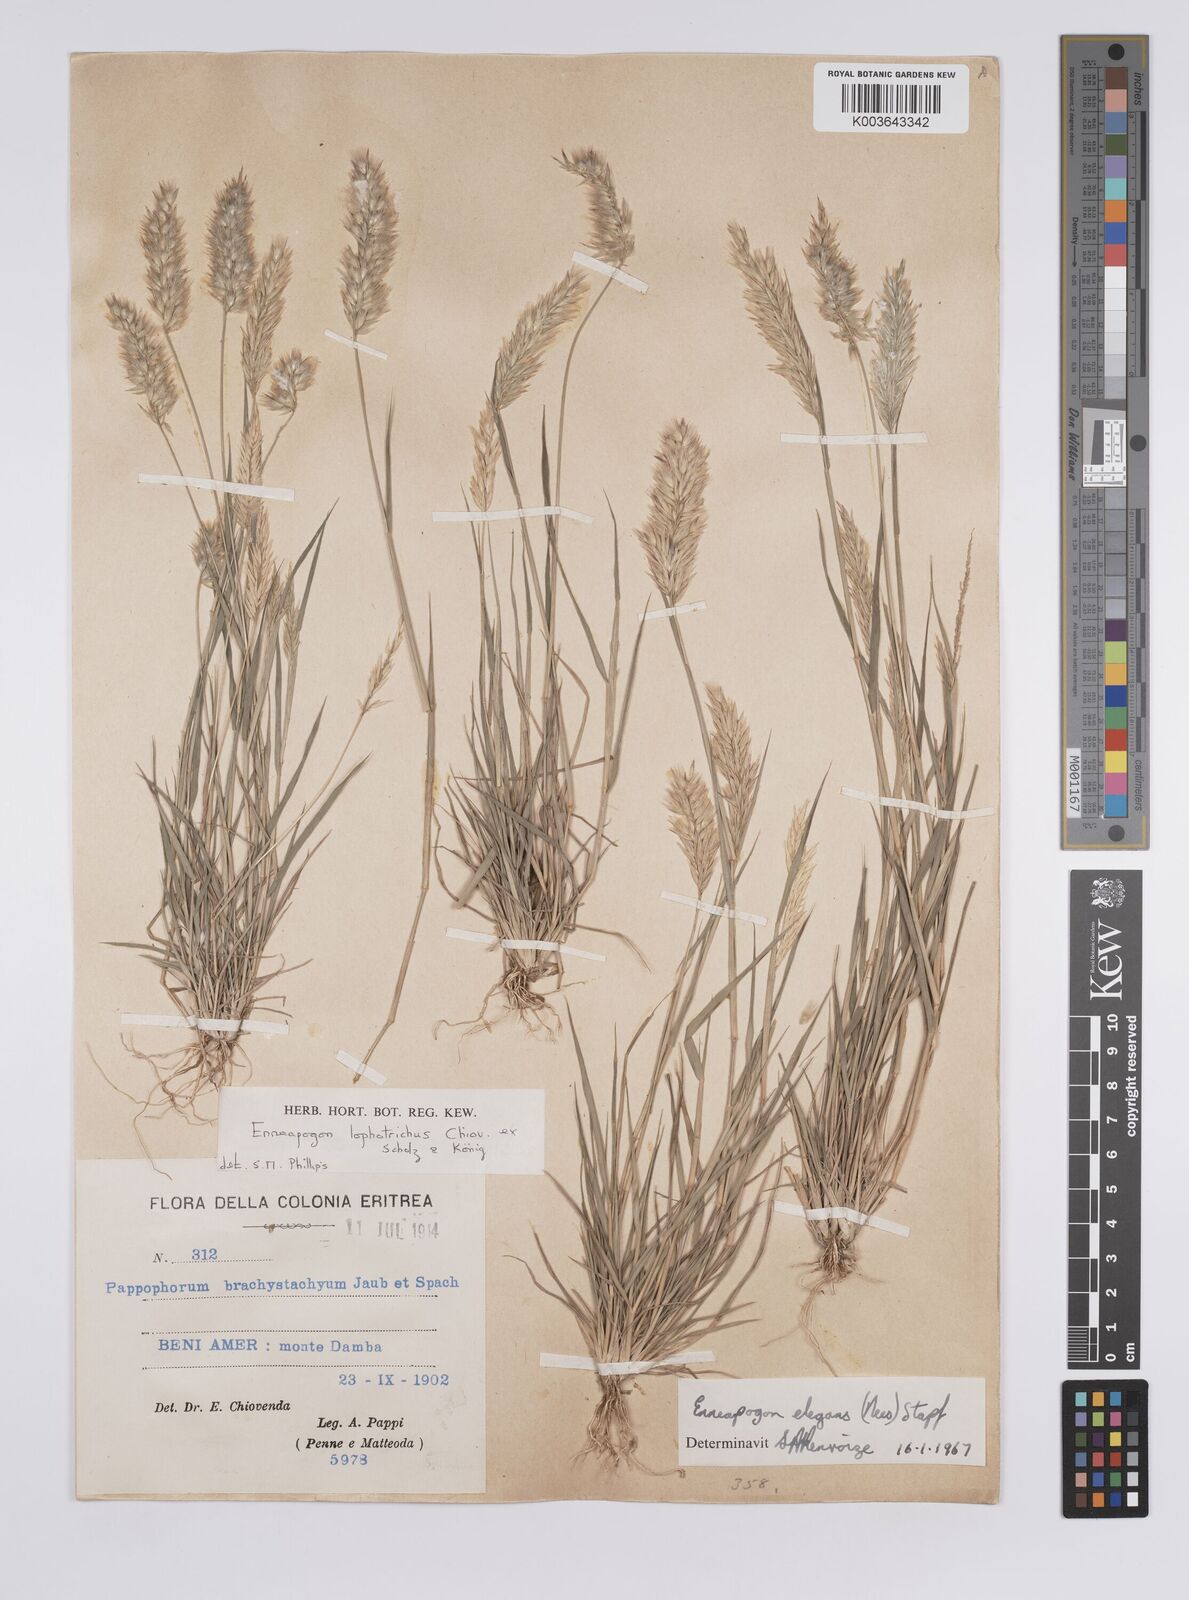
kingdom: Plantae
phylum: Tracheophyta
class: Liliopsida
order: Poales
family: Poaceae
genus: Enneapogon
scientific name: Enneapogon lophotrichus
